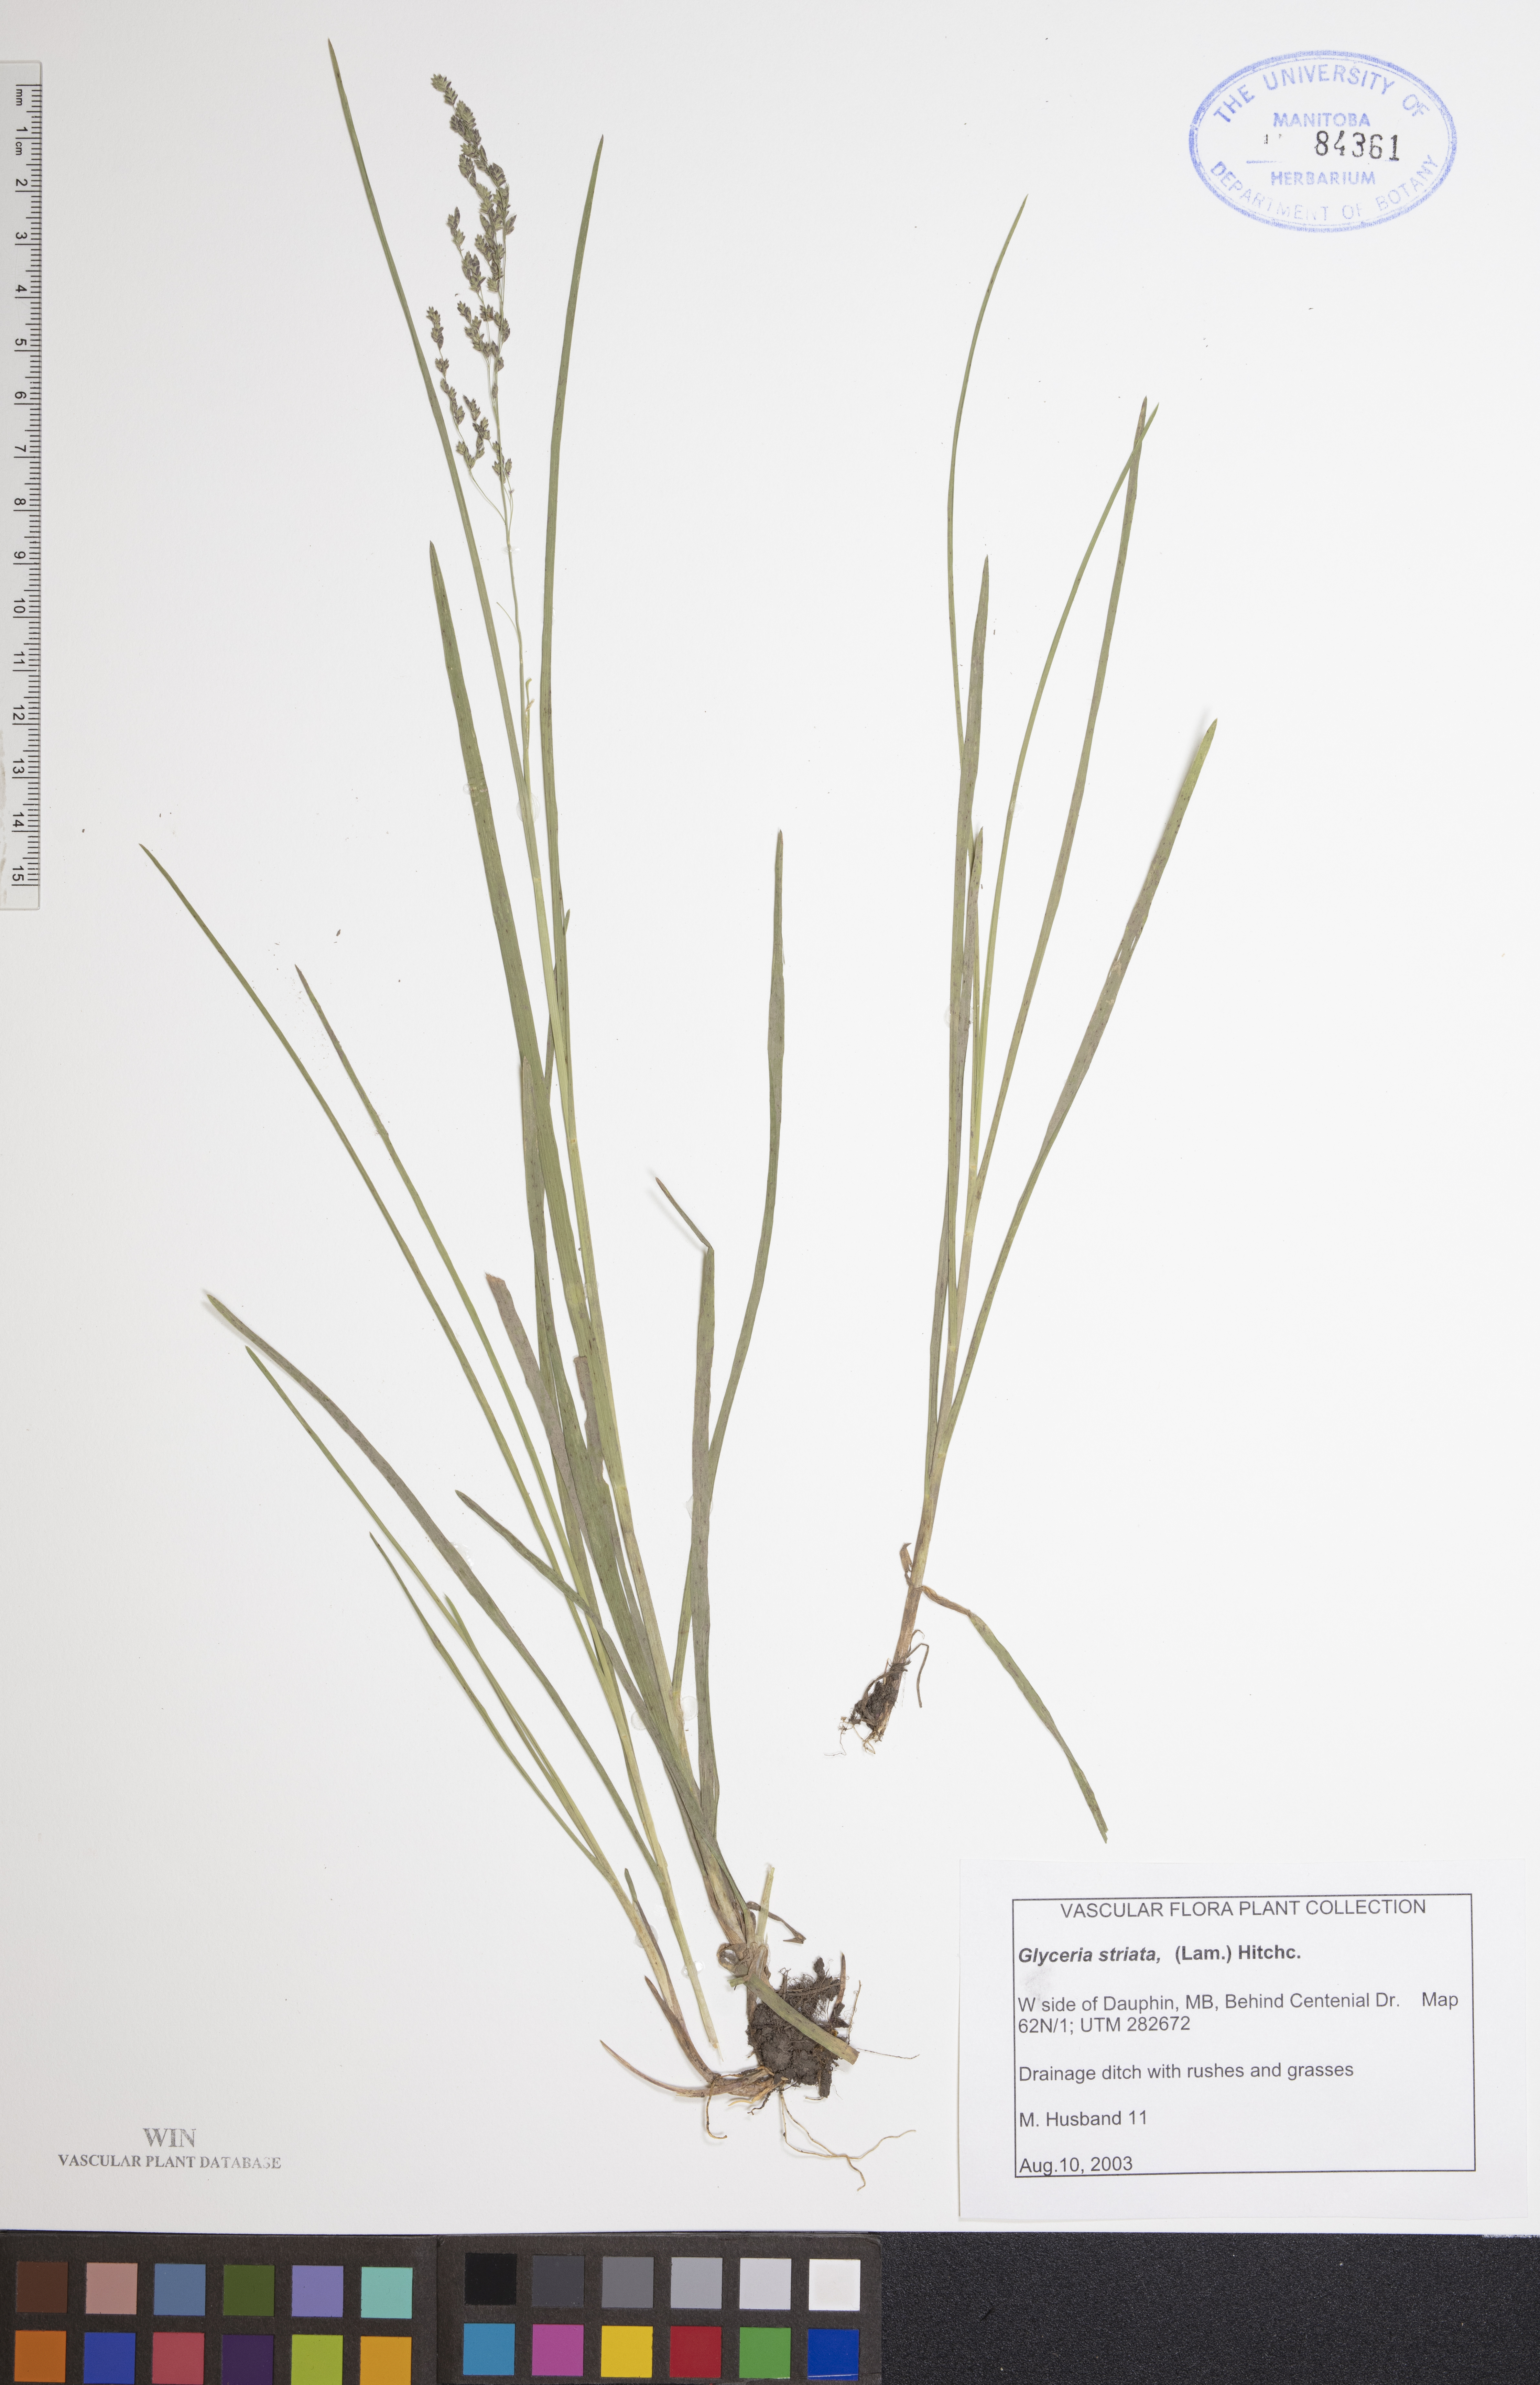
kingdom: Plantae
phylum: Tracheophyta
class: Liliopsida
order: Poales
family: Poaceae
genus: Glyceria
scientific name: Glyceria striata
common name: Fowl manna grass
